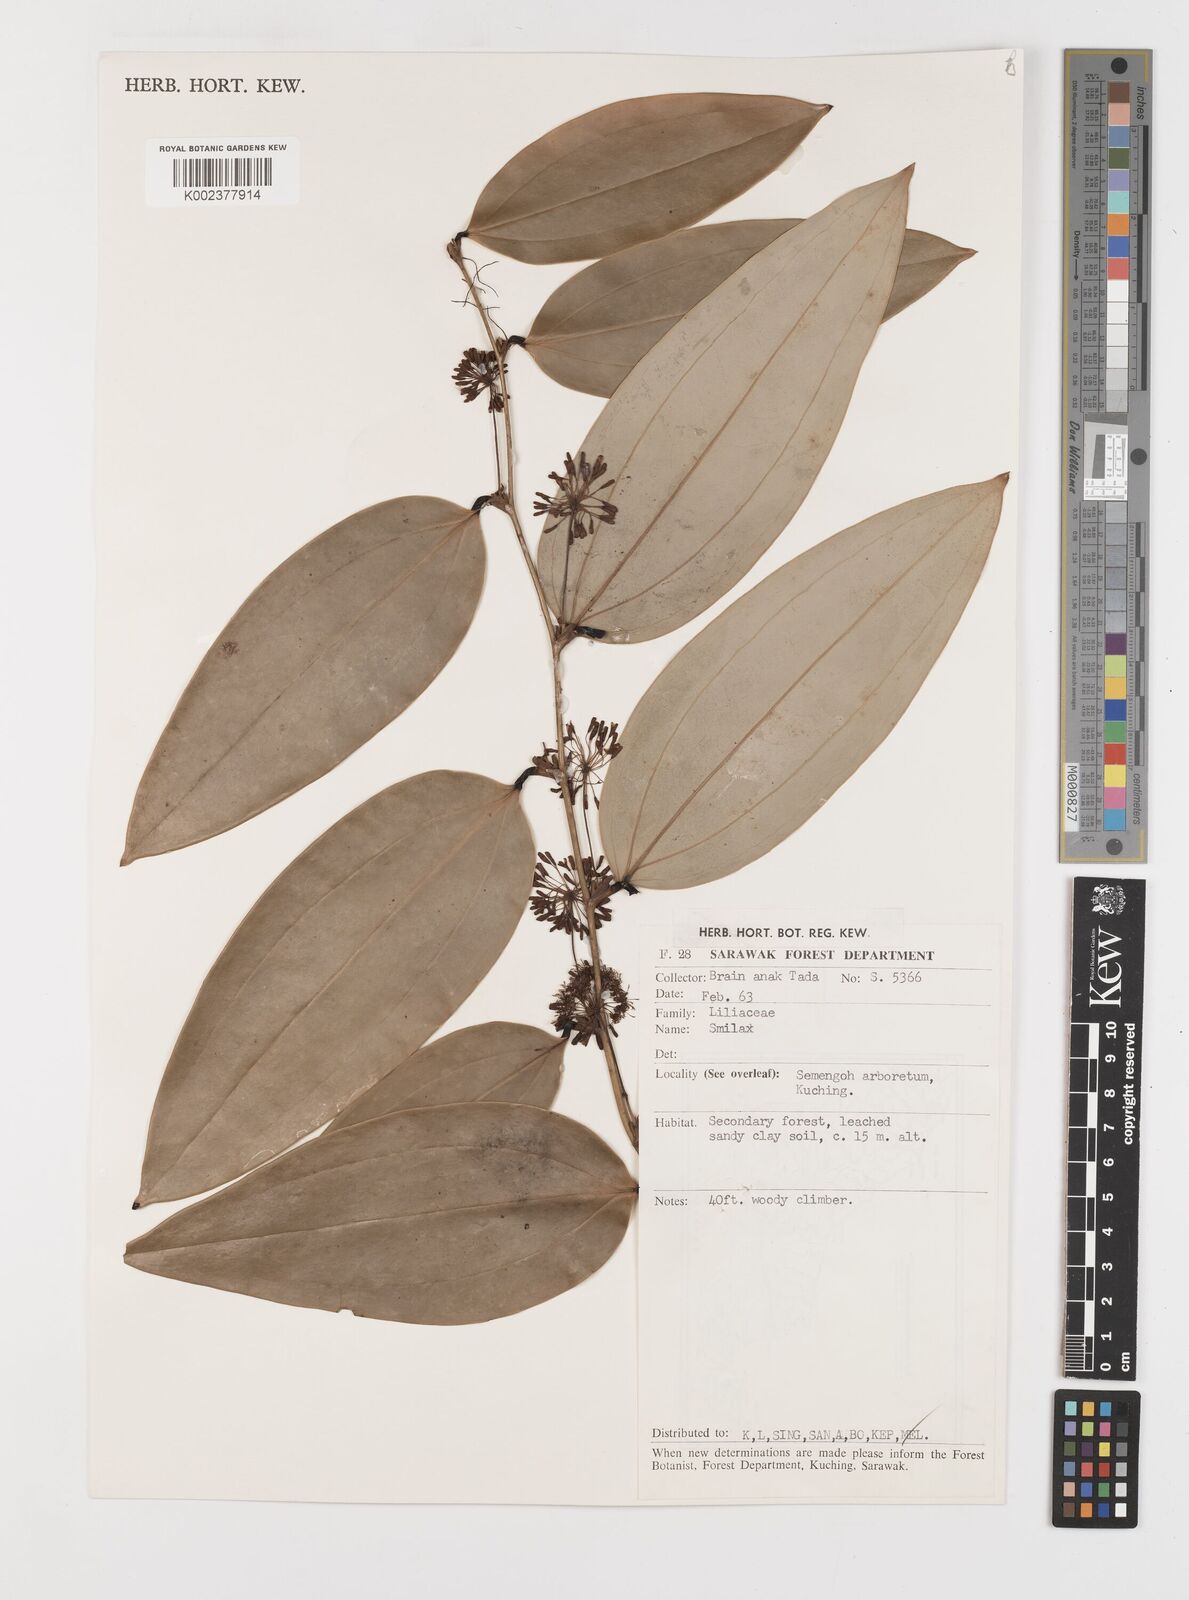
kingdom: Plantae
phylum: Tracheophyta
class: Liliopsida
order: Liliales
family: Smilacaceae
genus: Smilax
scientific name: Smilax
